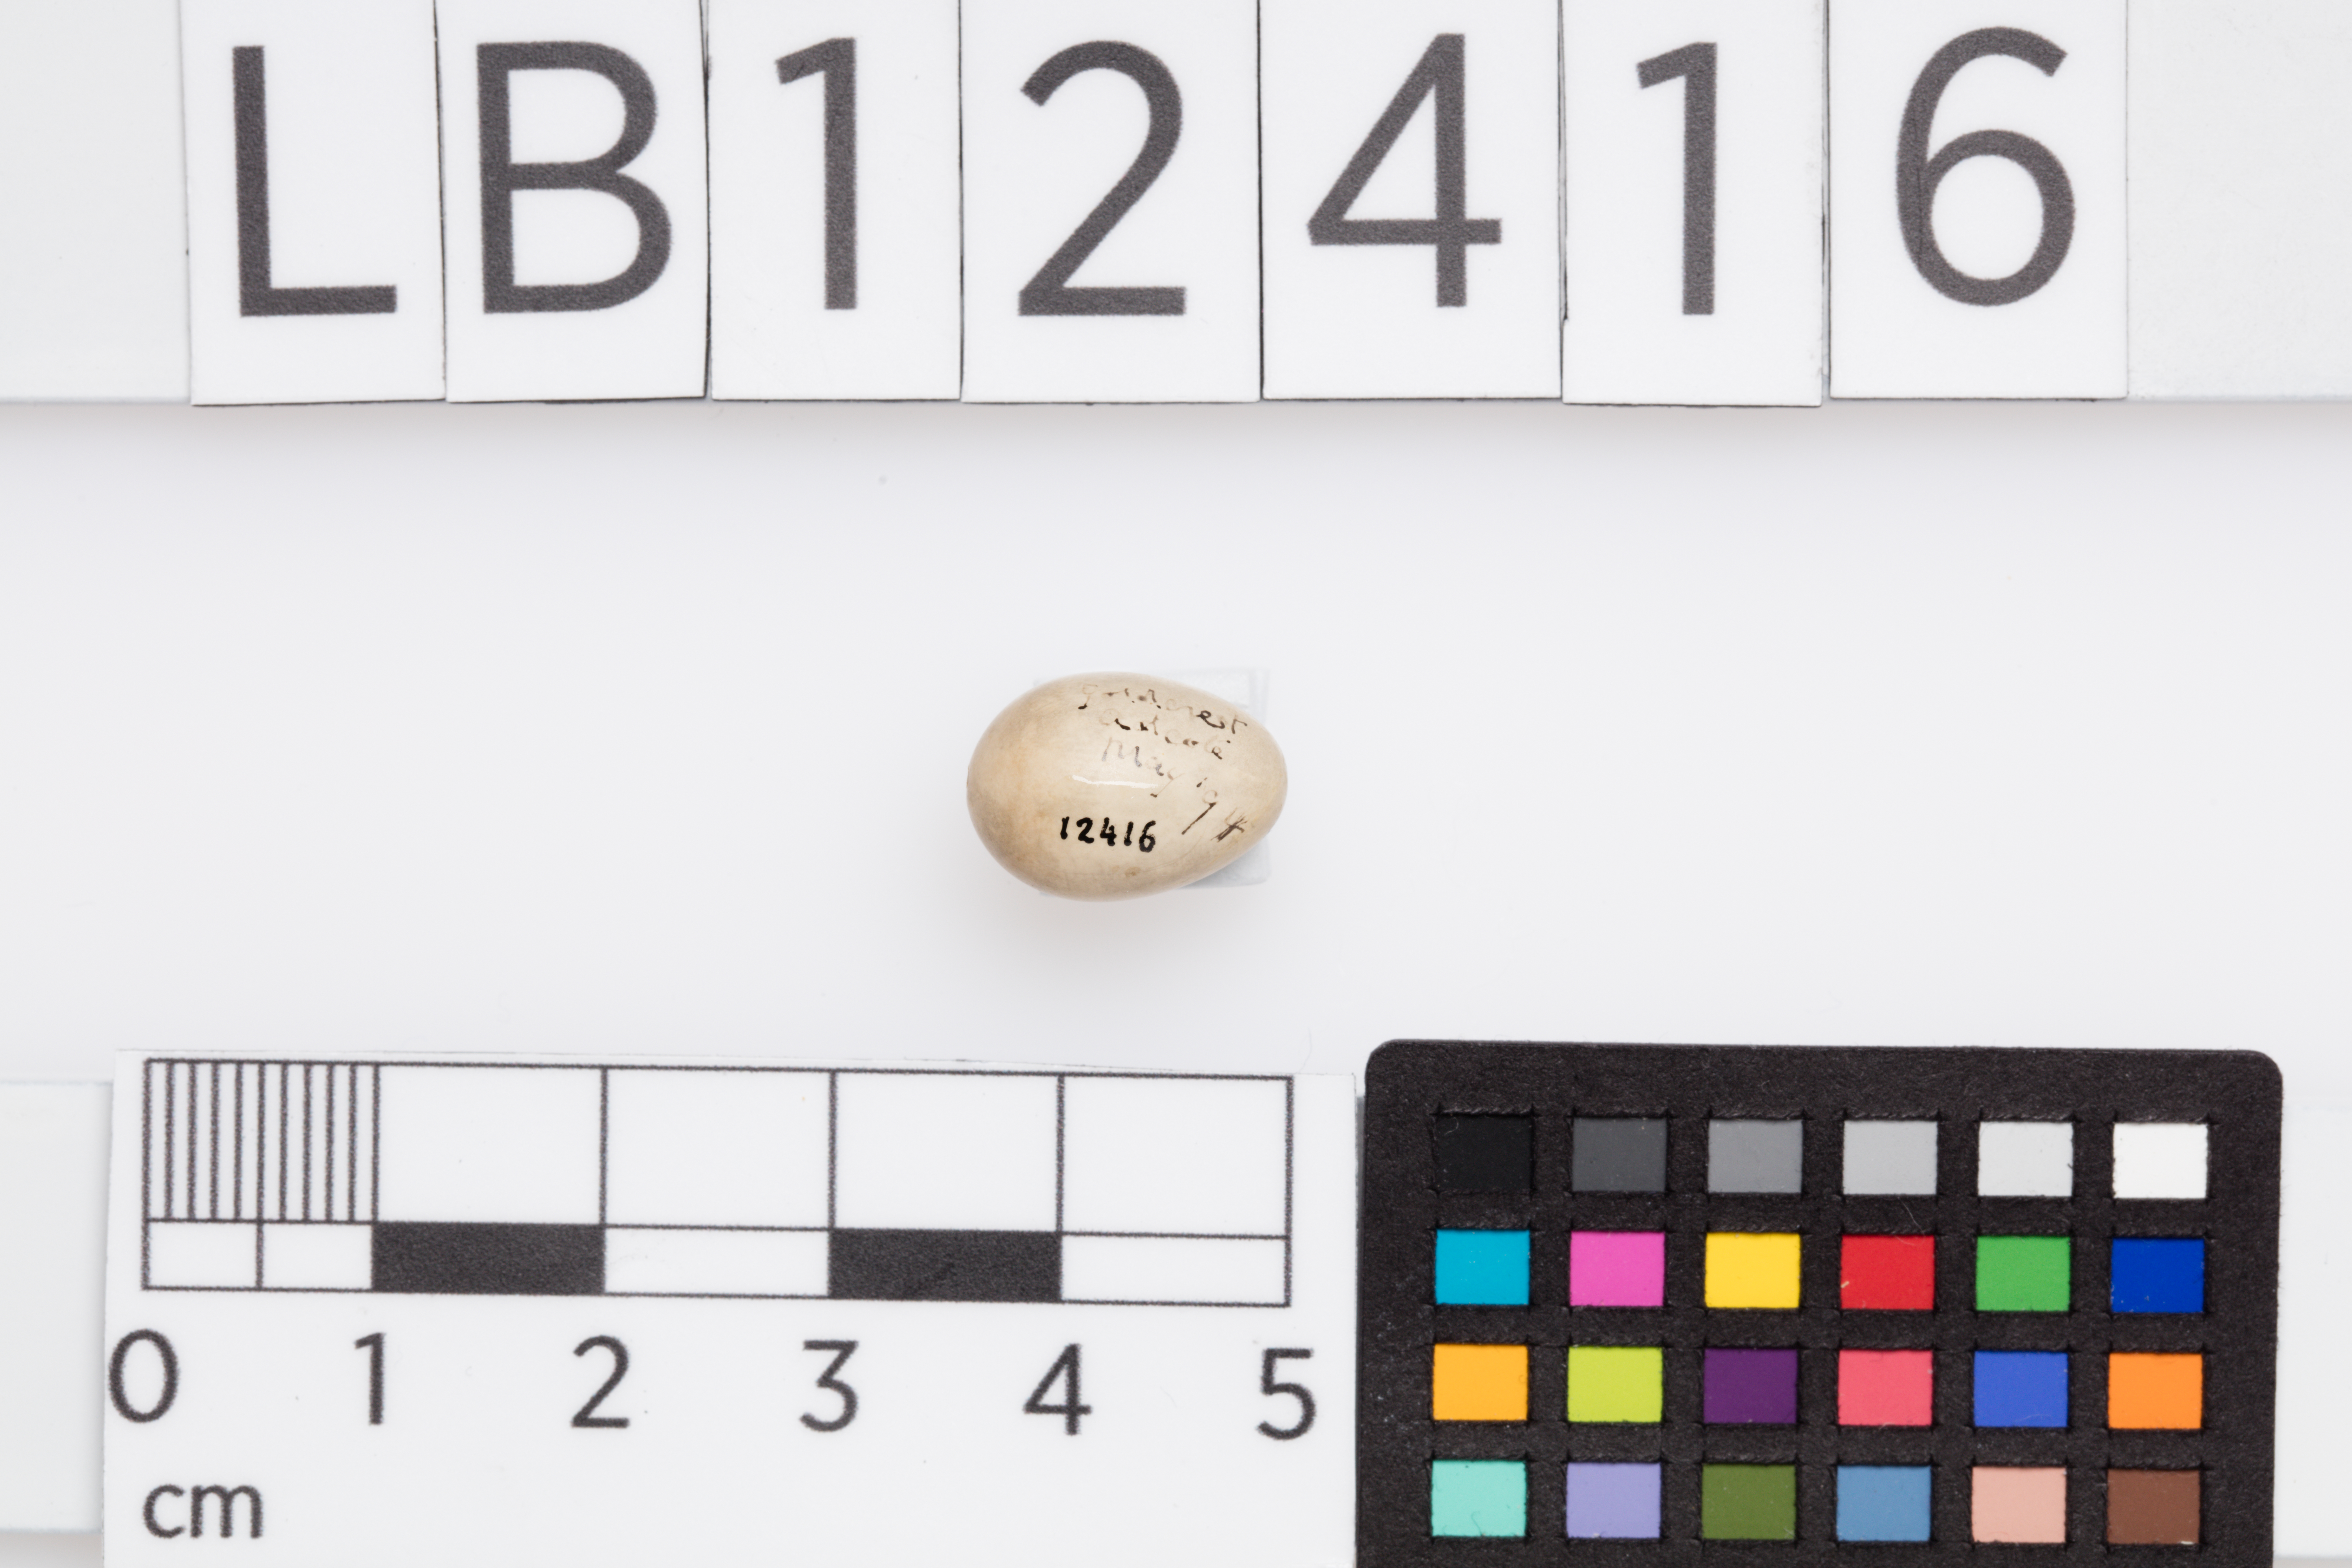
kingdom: Animalia
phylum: Chordata
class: Aves
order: Passeriformes
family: Regulidae
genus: Regulus
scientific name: Regulus regulus
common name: Goldcrest
